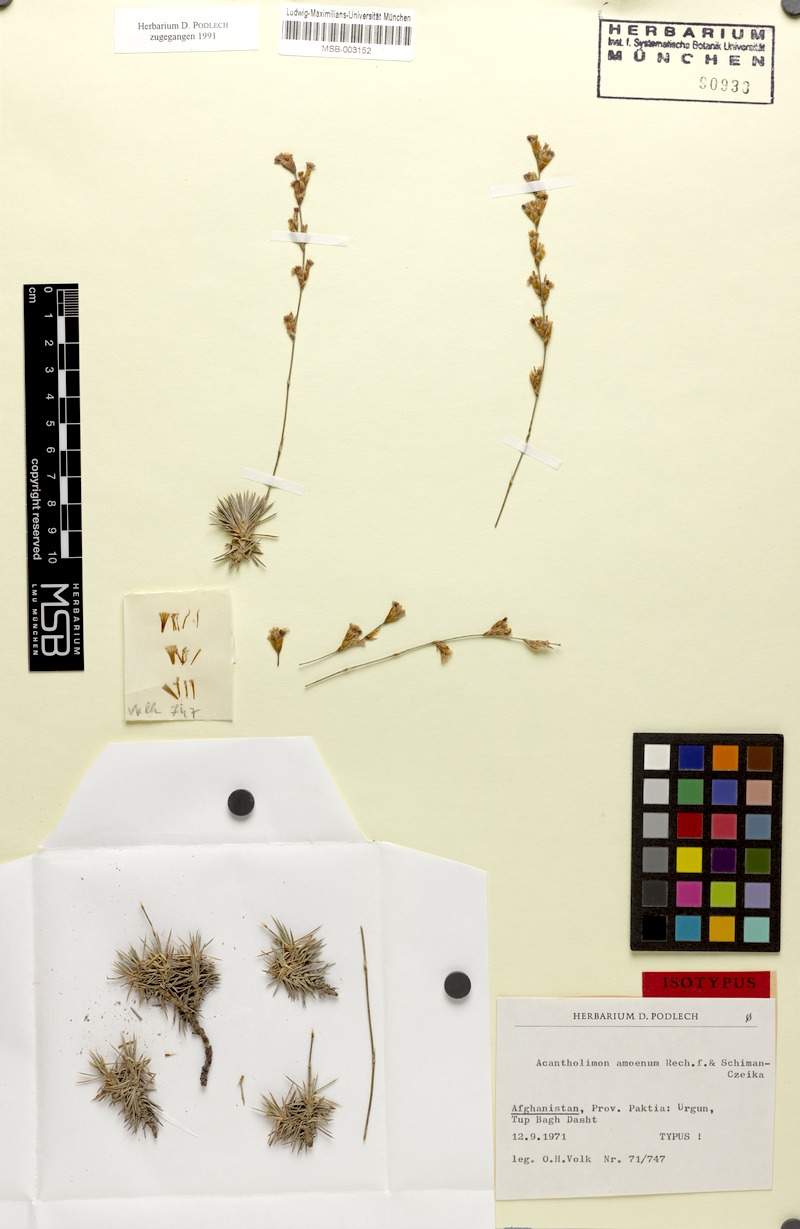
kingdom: Plantae
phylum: Tracheophyta
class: Magnoliopsida
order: Caryophyllales
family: Plumbaginaceae
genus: Acantholimon
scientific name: Acantholimon amoenum
